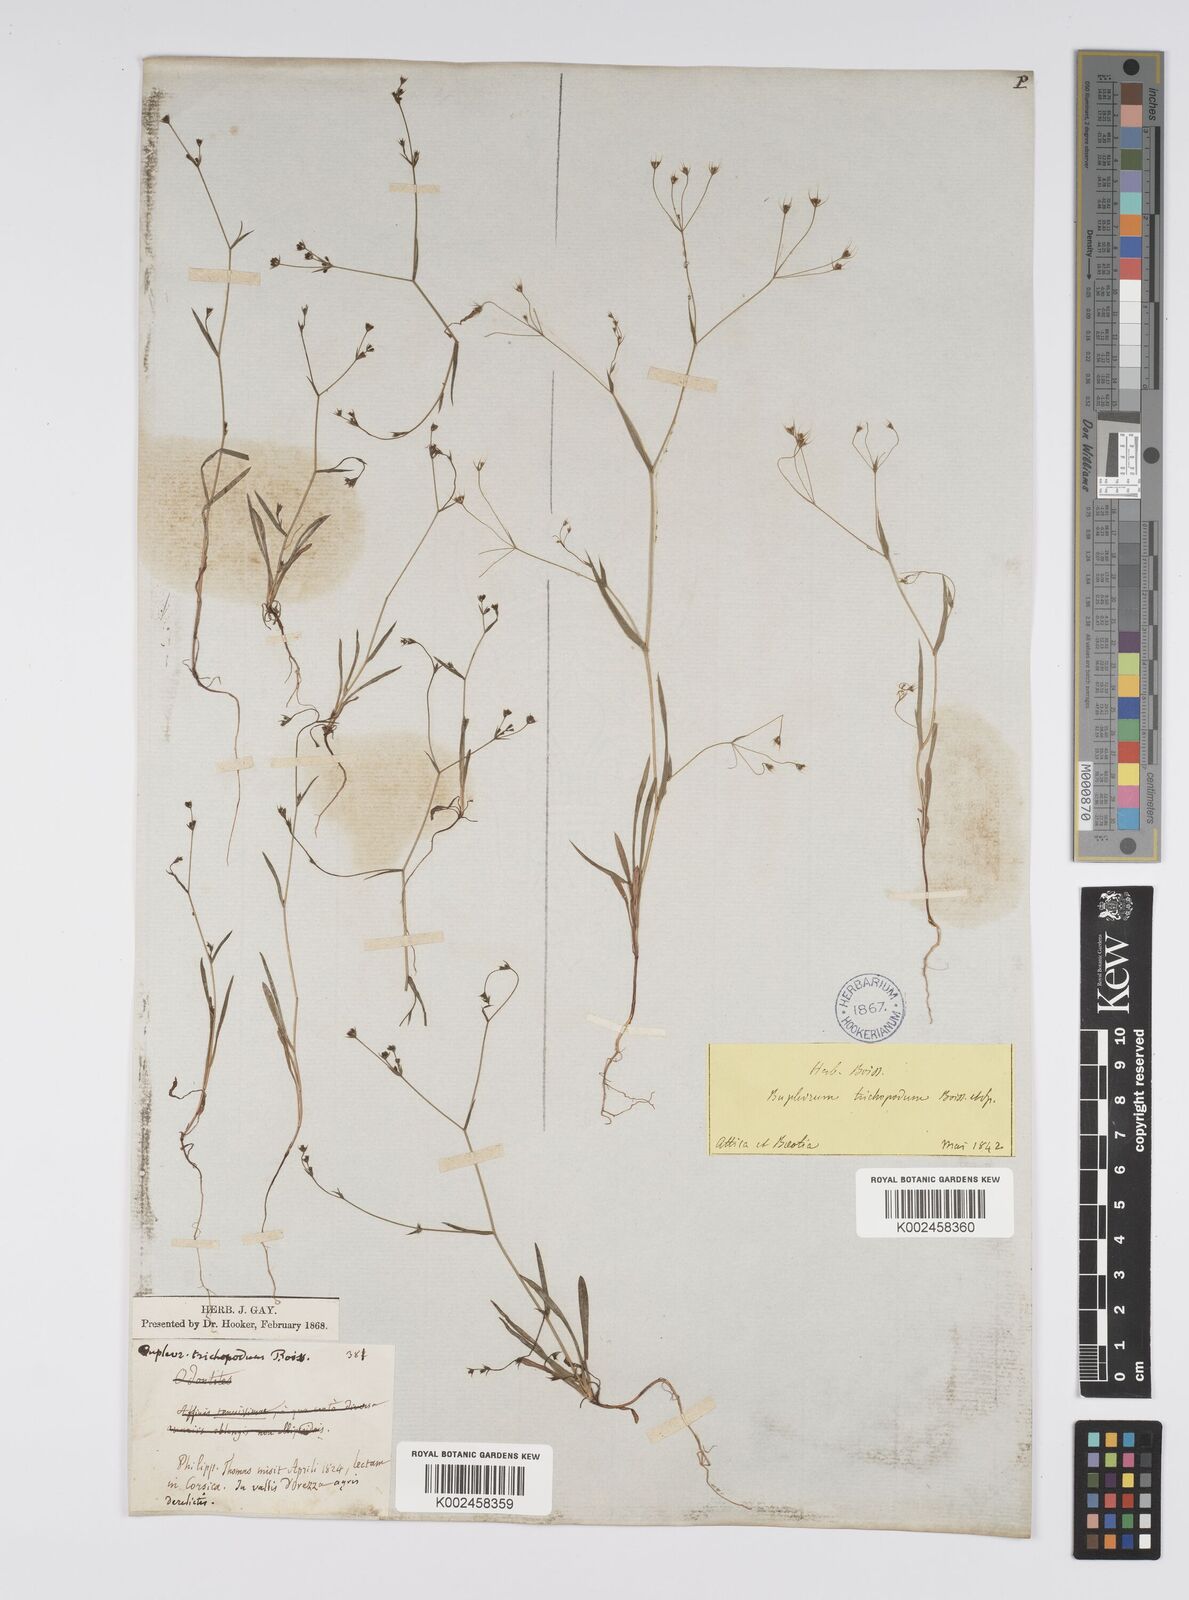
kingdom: Plantae
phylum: Tracheophyta
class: Magnoliopsida
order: Apiales
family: Apiaceae
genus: Bupleurum
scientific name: Bupleurum trichopodum
